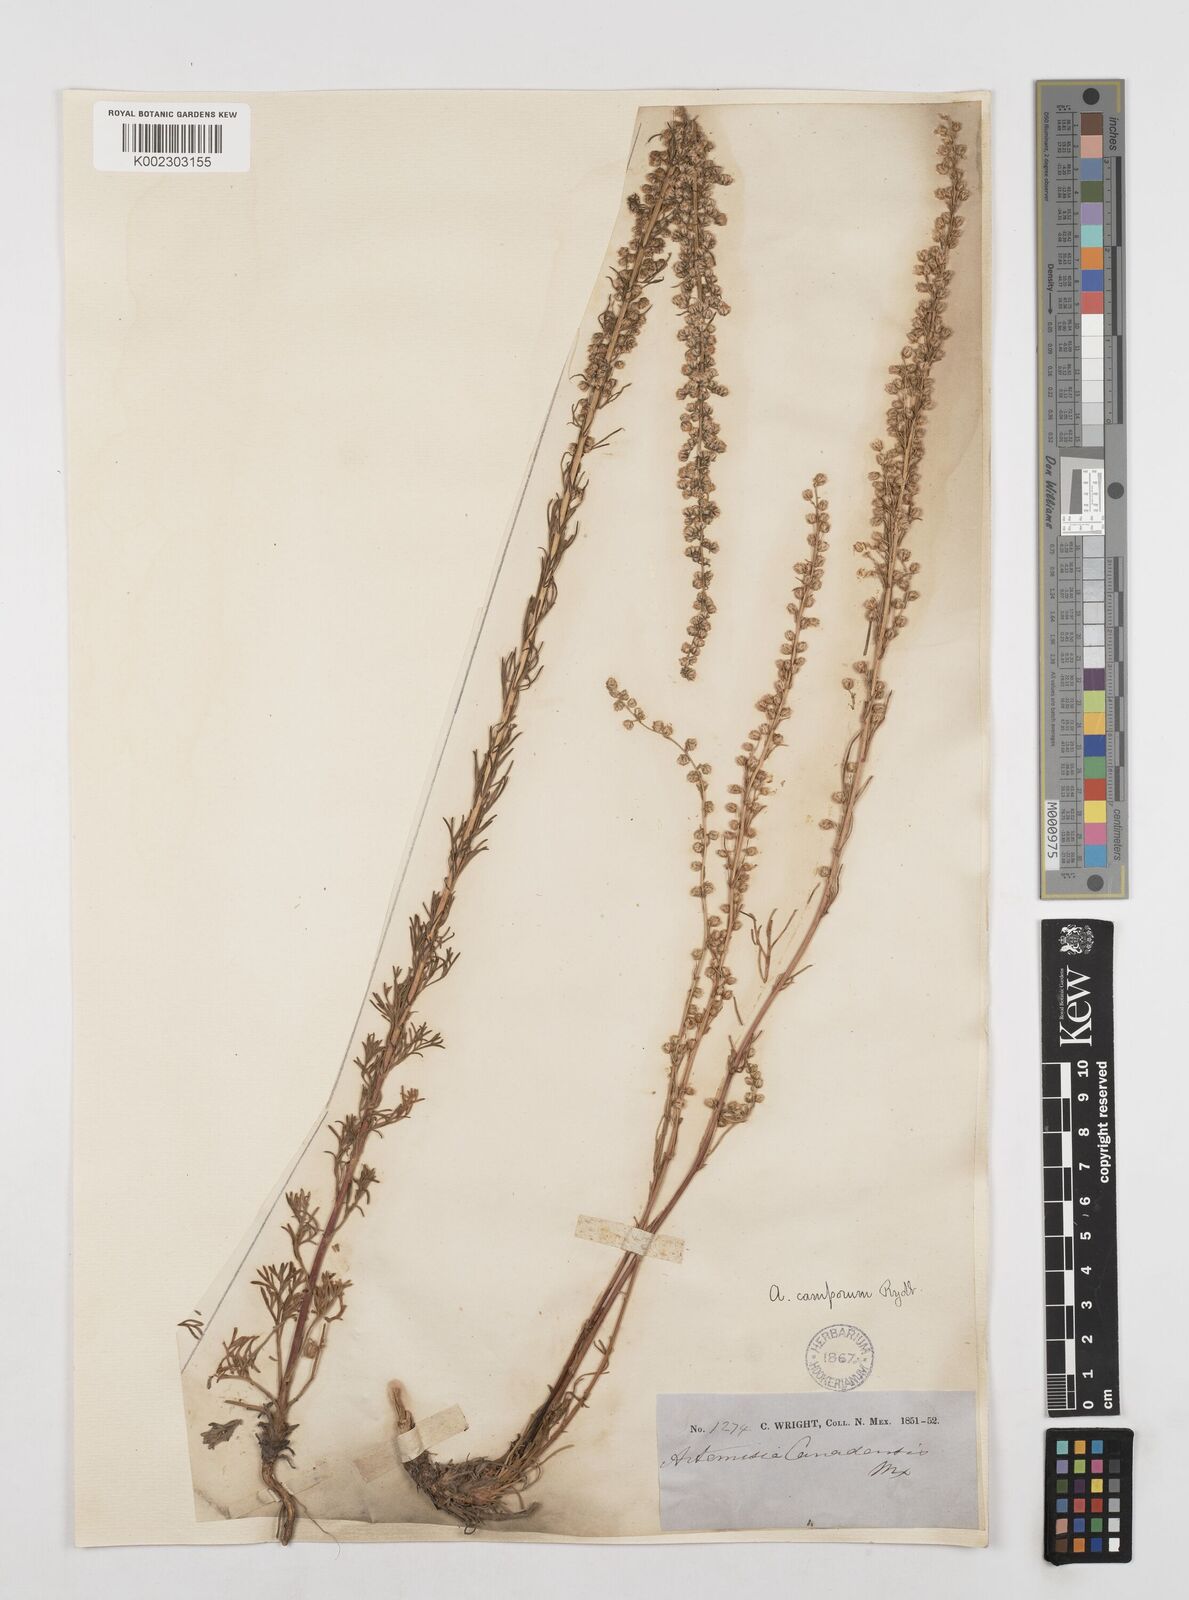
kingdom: Plantae
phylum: Tracheophyta
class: Magnoliopsida
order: Asterales
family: Asteraceae
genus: Artemisia
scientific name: Artemisia campestris
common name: Field wormwood
